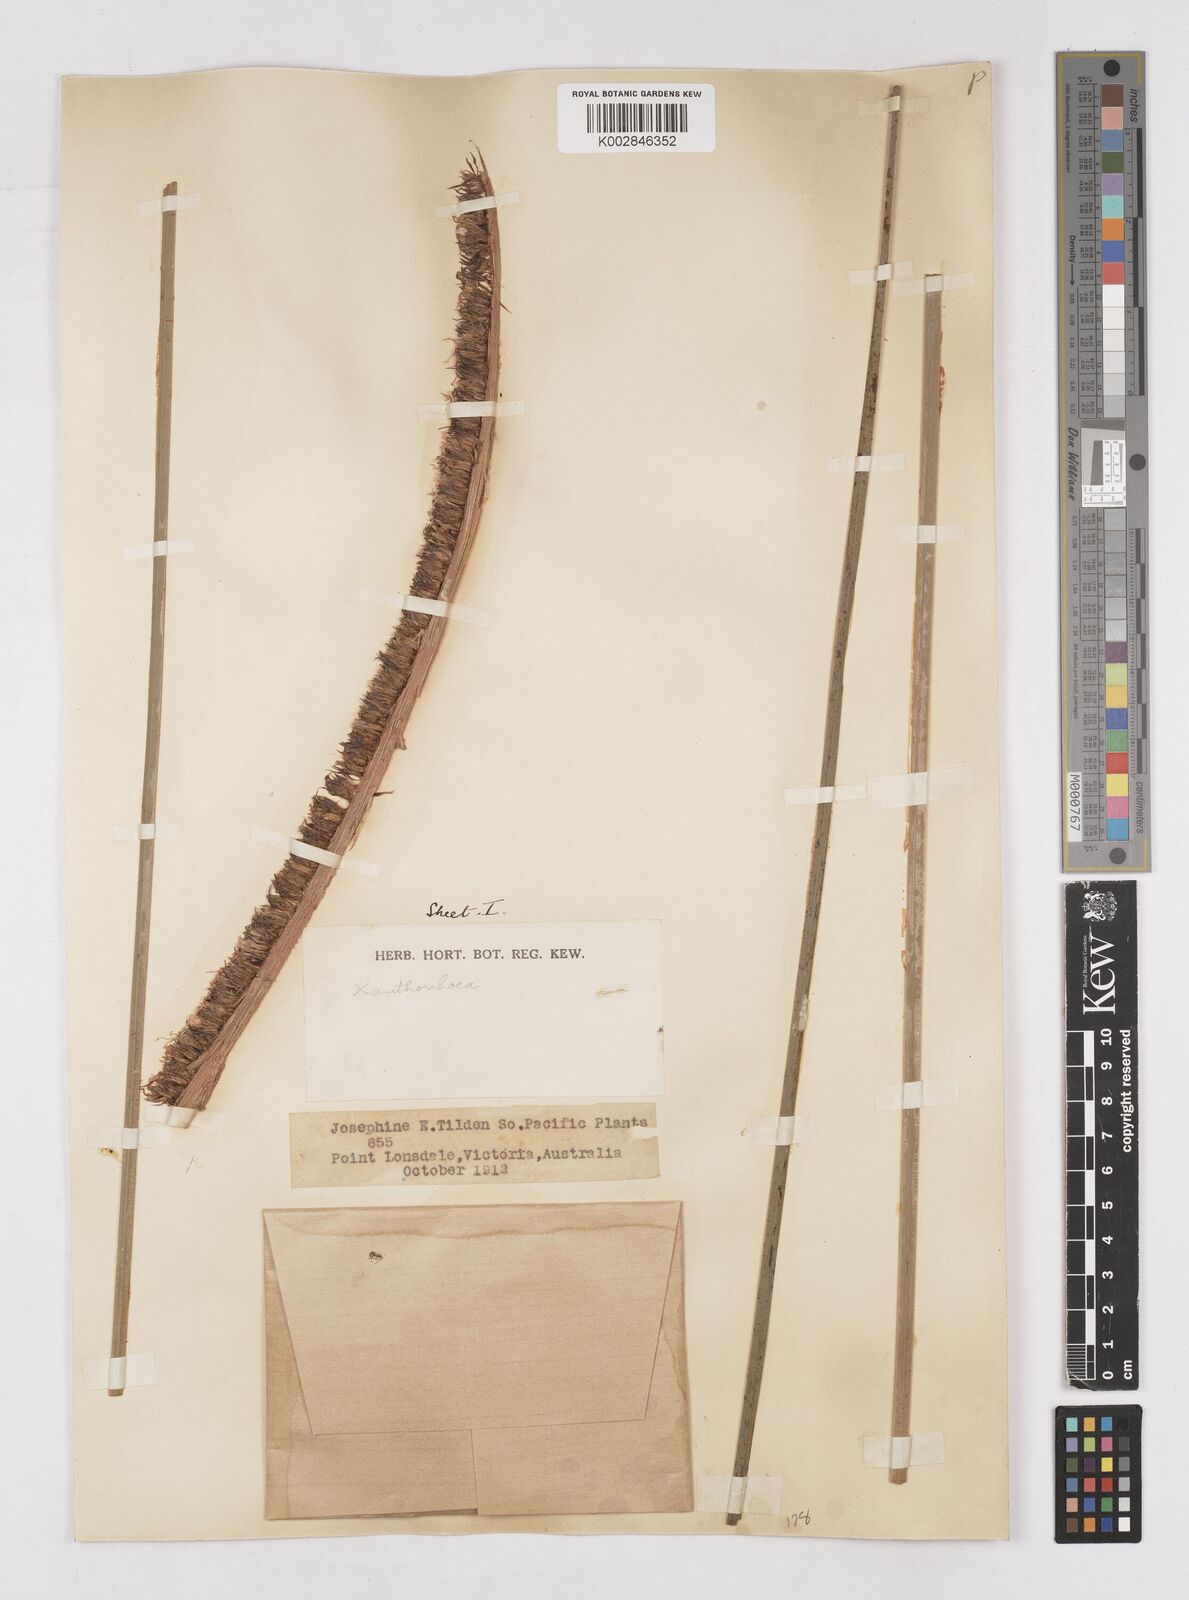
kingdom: Plantae
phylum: Tracheophyta
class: Liliopsida
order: Asparagales
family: Asphodelaceae
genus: Xanthorrhoea
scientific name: Xanthorrhoea
